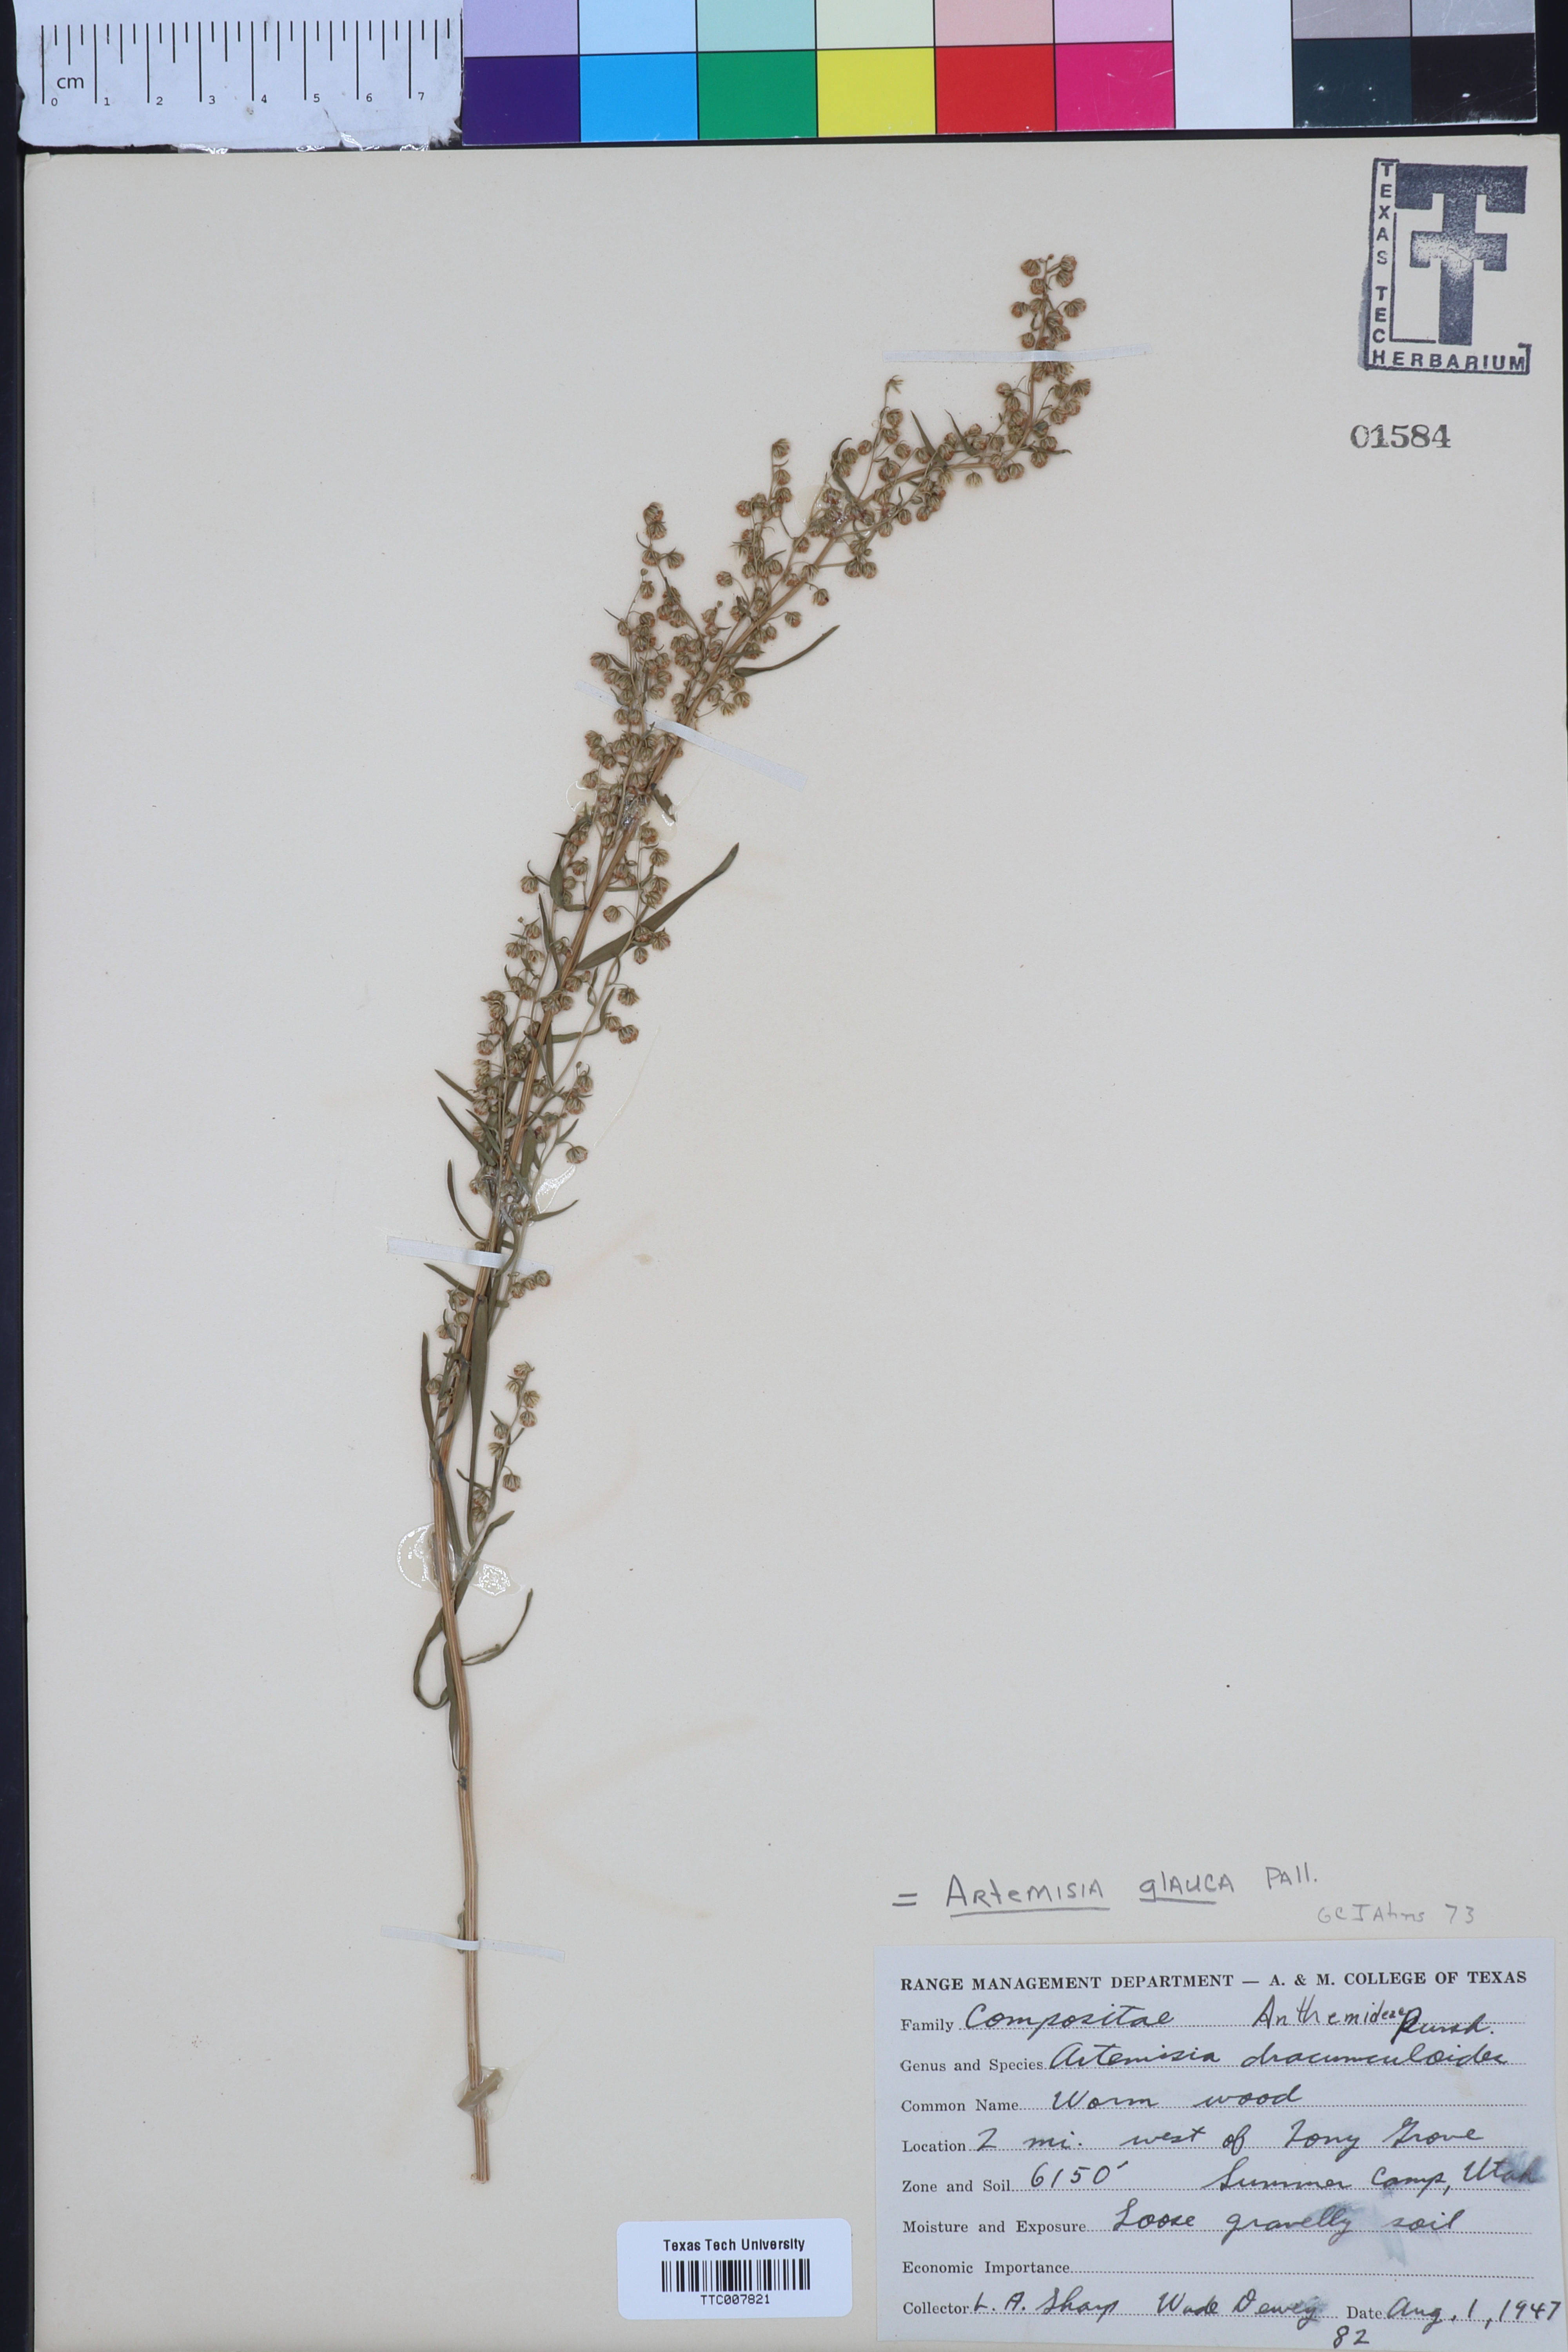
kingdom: Plantae
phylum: Tracheophyta
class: Magnoliopsida
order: Asterales
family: Asteraceae
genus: Artemisia
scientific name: Artemisia glauca
